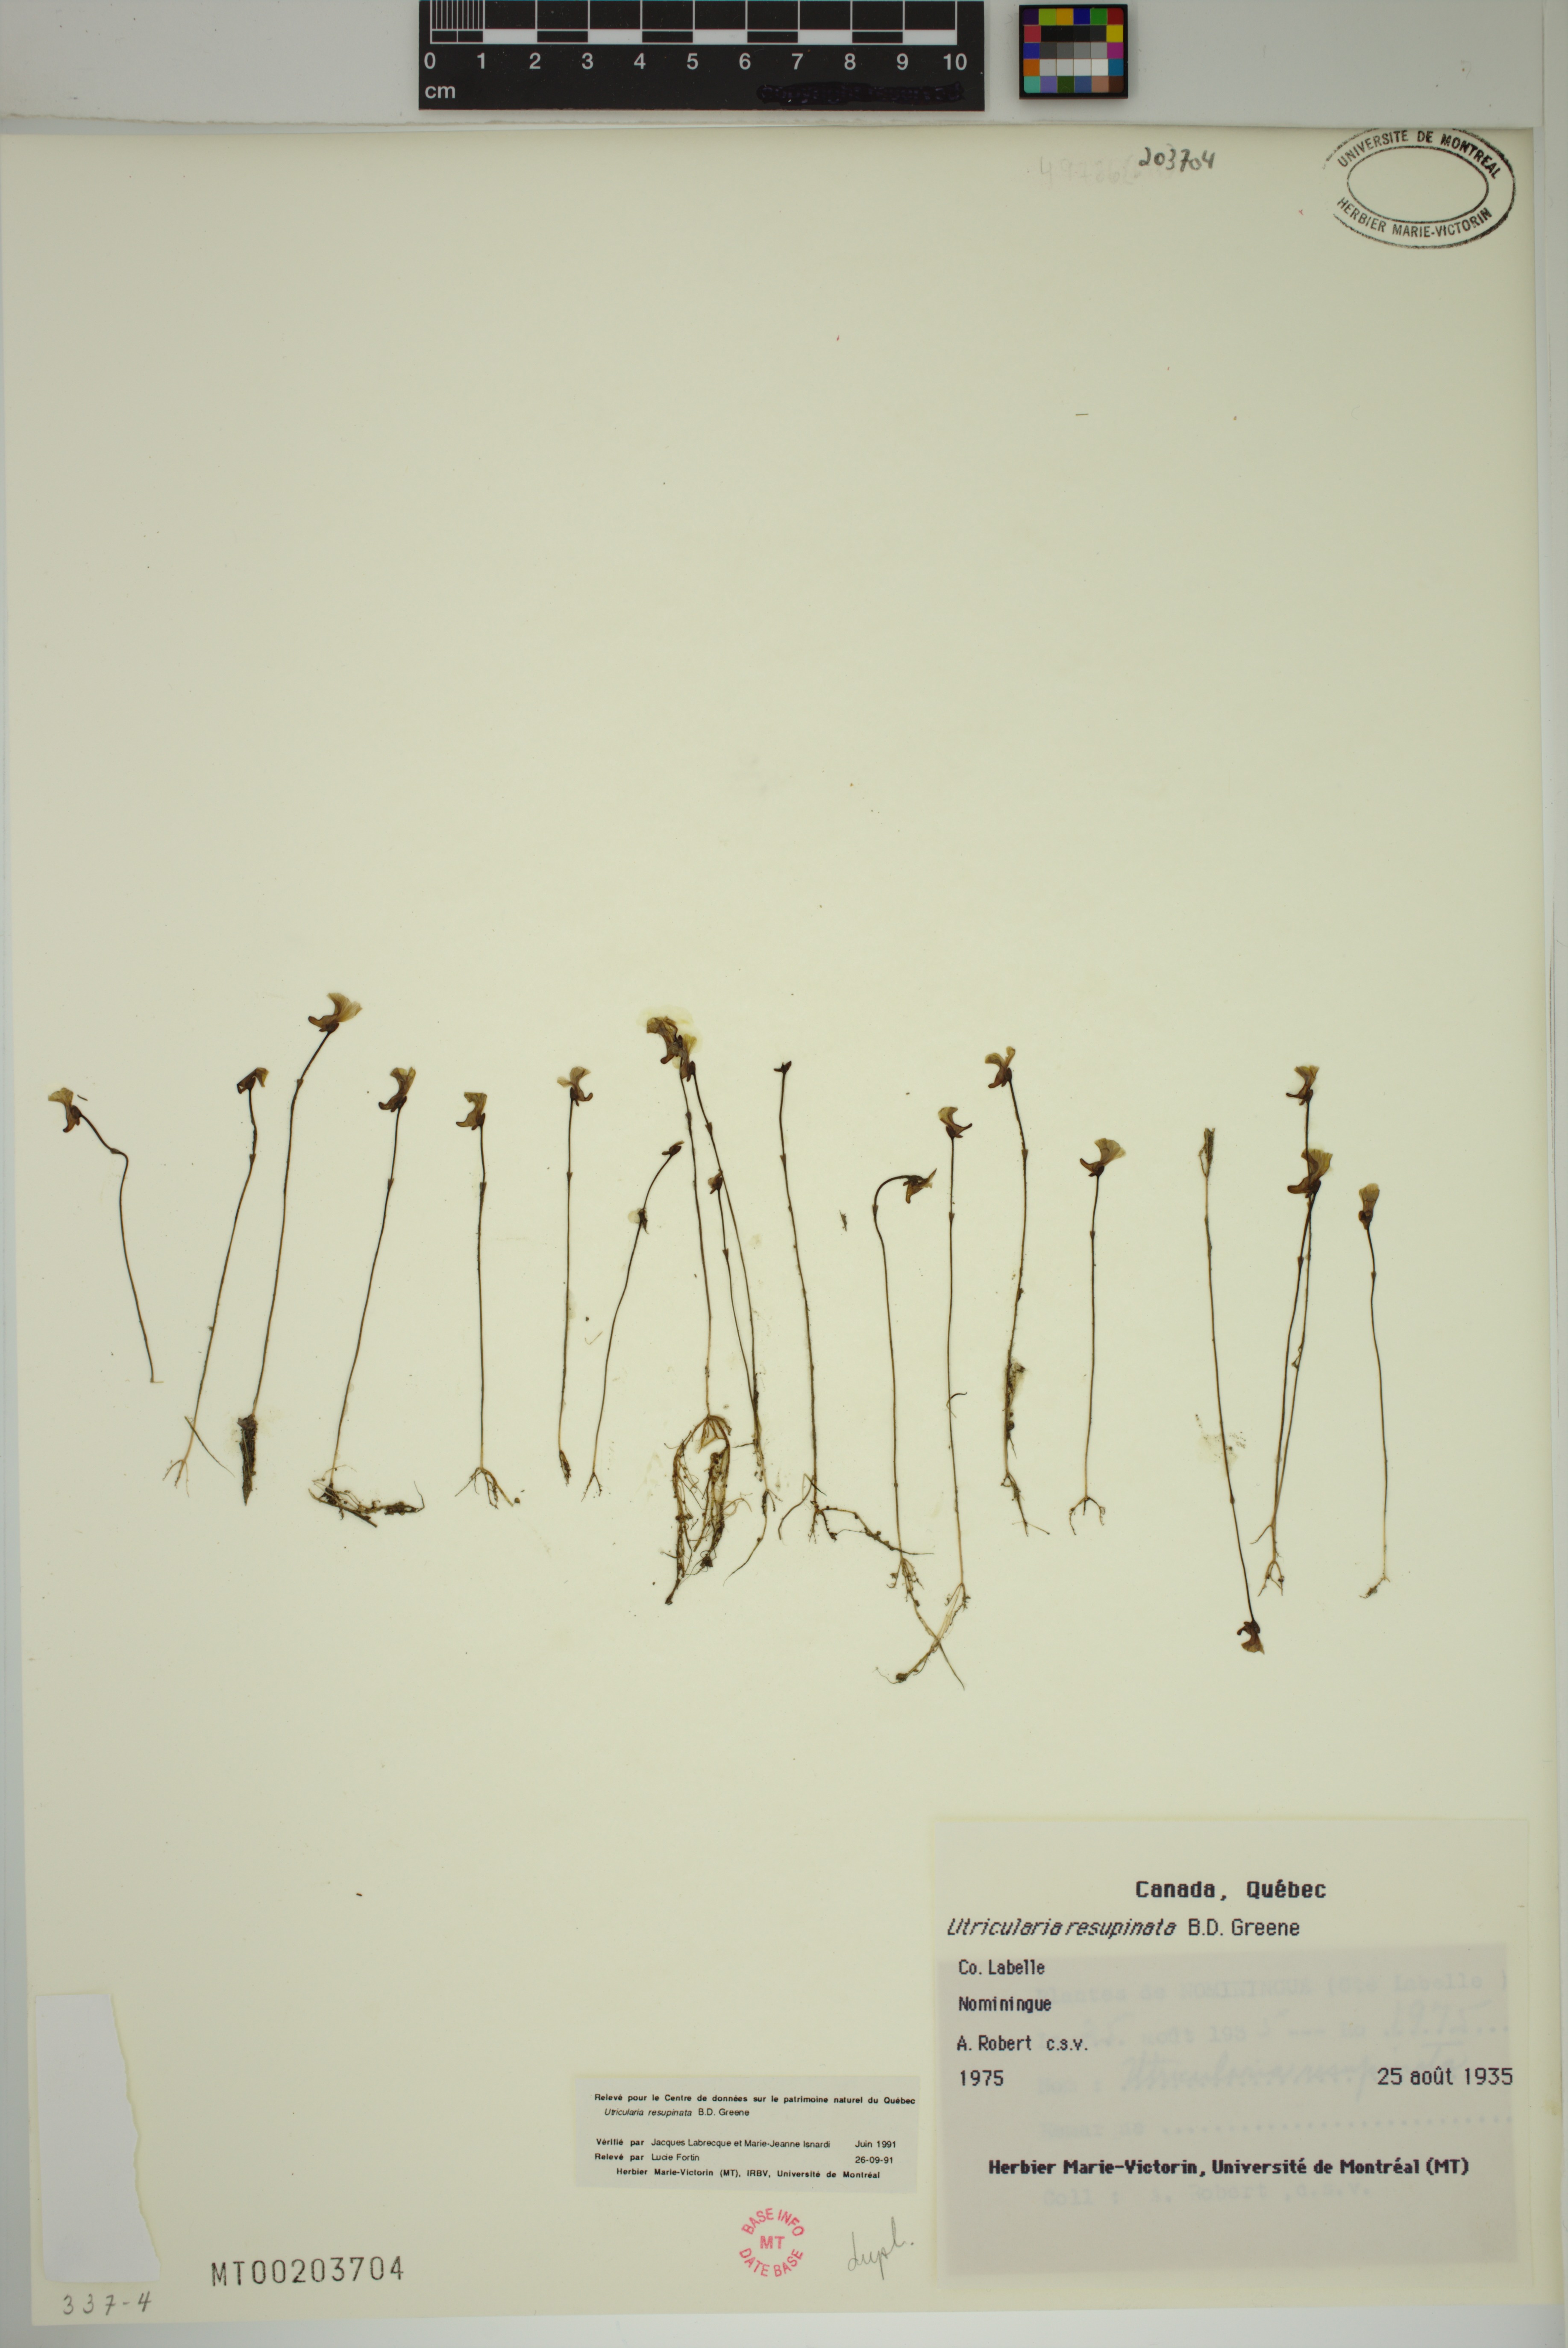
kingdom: Plantae
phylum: Tracheophyta
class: Magnoliopsida
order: Lamiales
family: Lentibulariaceae
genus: Utricularia
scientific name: Utricularia resupinata
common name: Northeastern bladderwort
